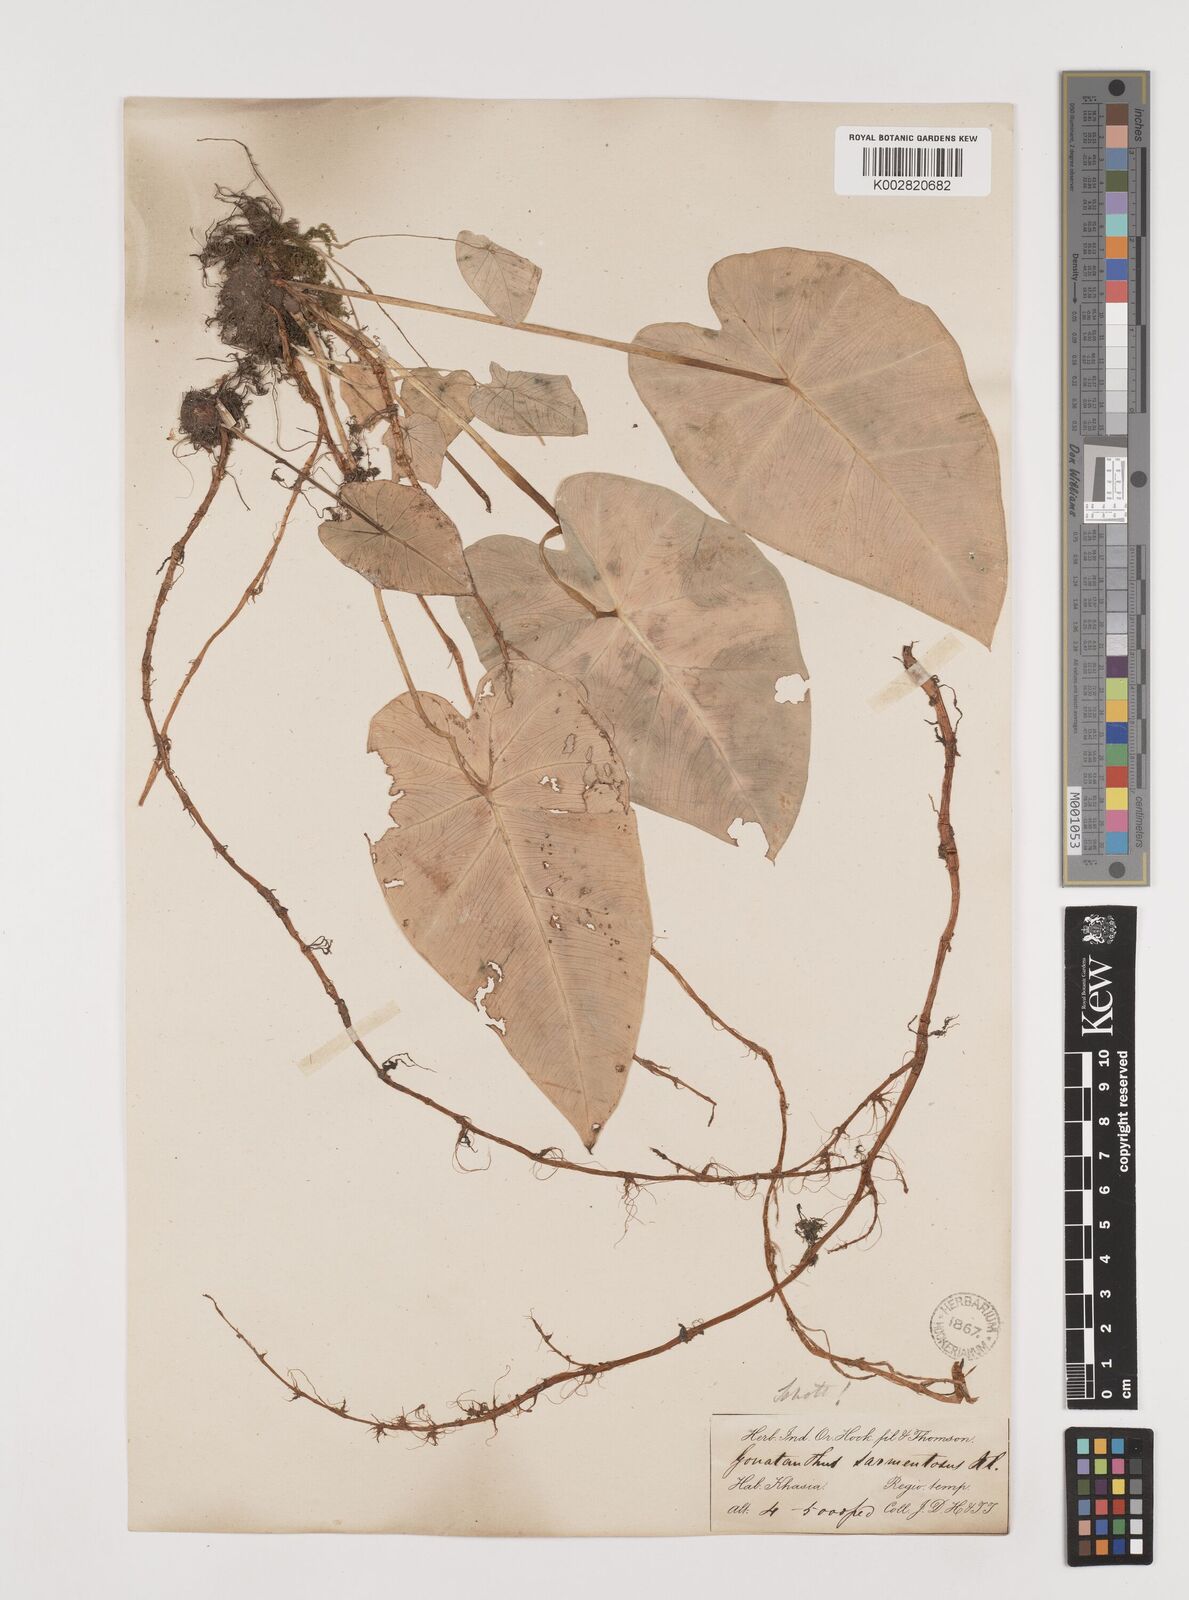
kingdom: Plantae
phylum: Tracheophyta
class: Liliopsida
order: Alismatales
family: Araceae
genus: Remusatia
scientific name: Remusatia pumila
